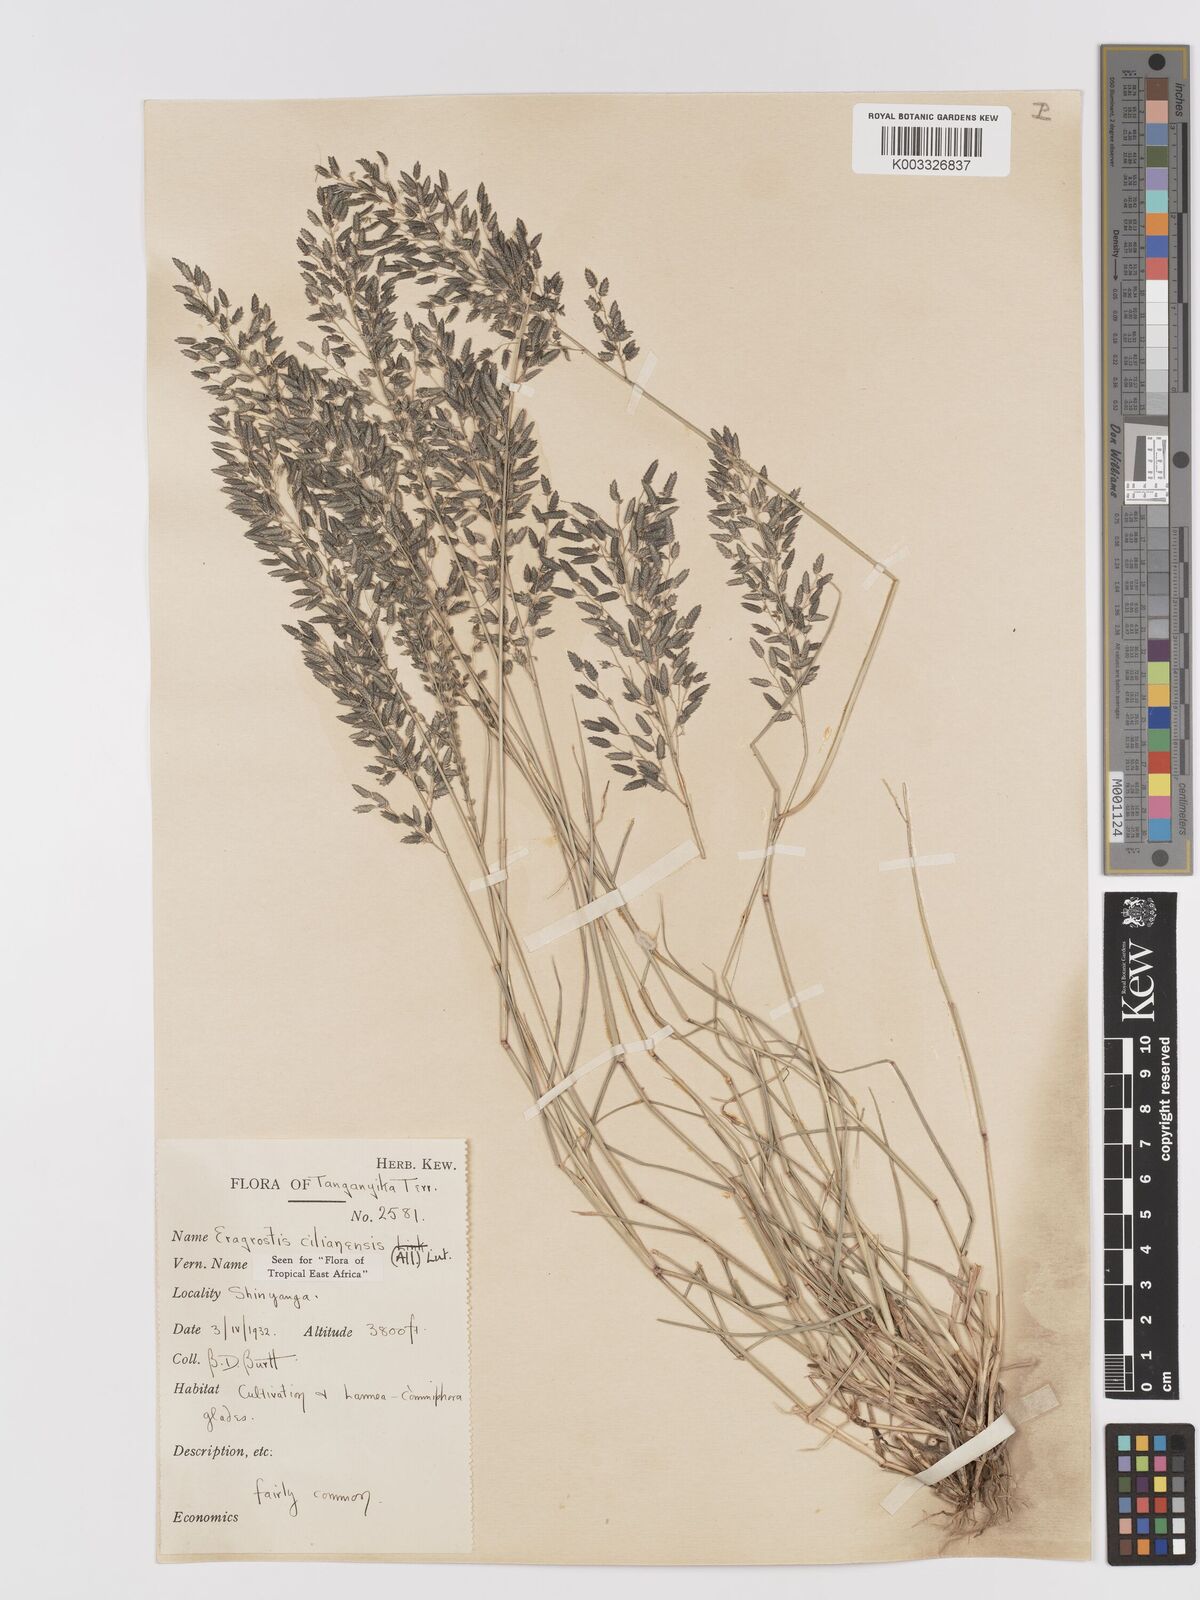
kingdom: Plantae
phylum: Tracheophyta
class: Liliopsida
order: Poales
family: Poaceae
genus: Eragrostis
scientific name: Eragrostis cilianensis
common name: Stinkgrass
